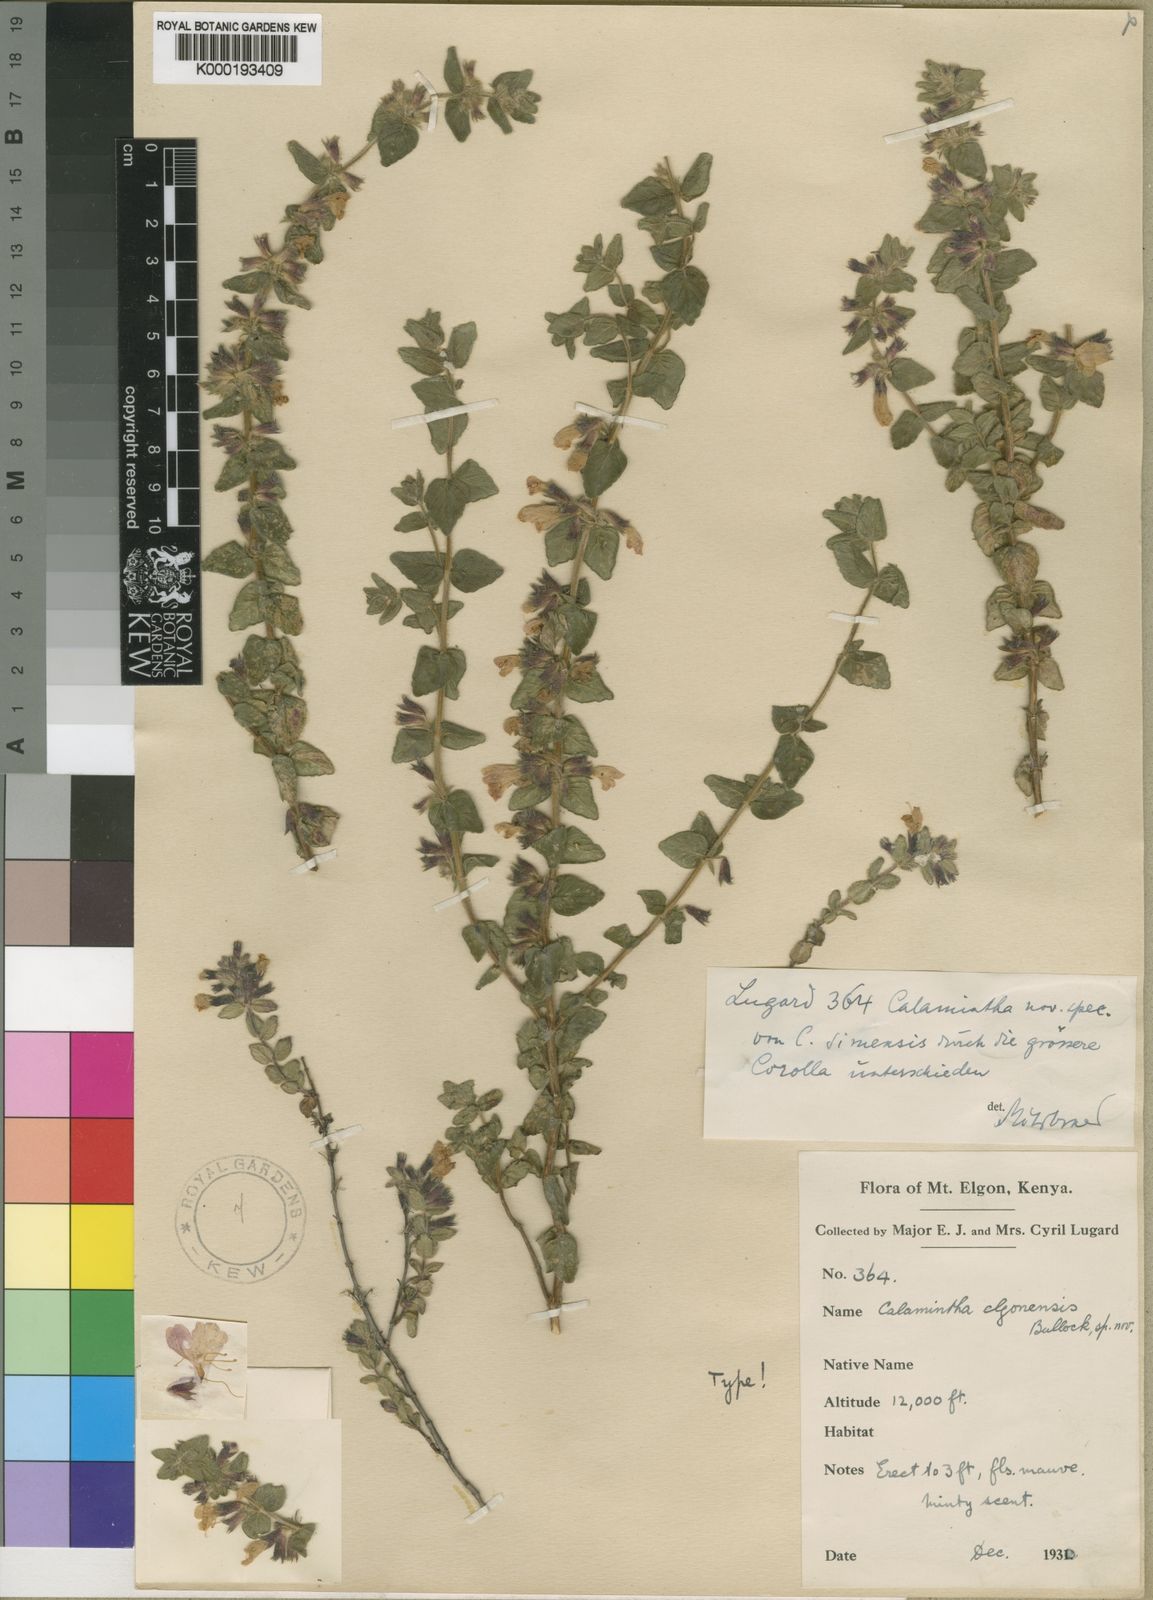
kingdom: Plantae
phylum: Tracheophyta
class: Magnoliopsida
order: Lamiales
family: Lamiaceae
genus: Clinopodium
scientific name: Clinopodium
